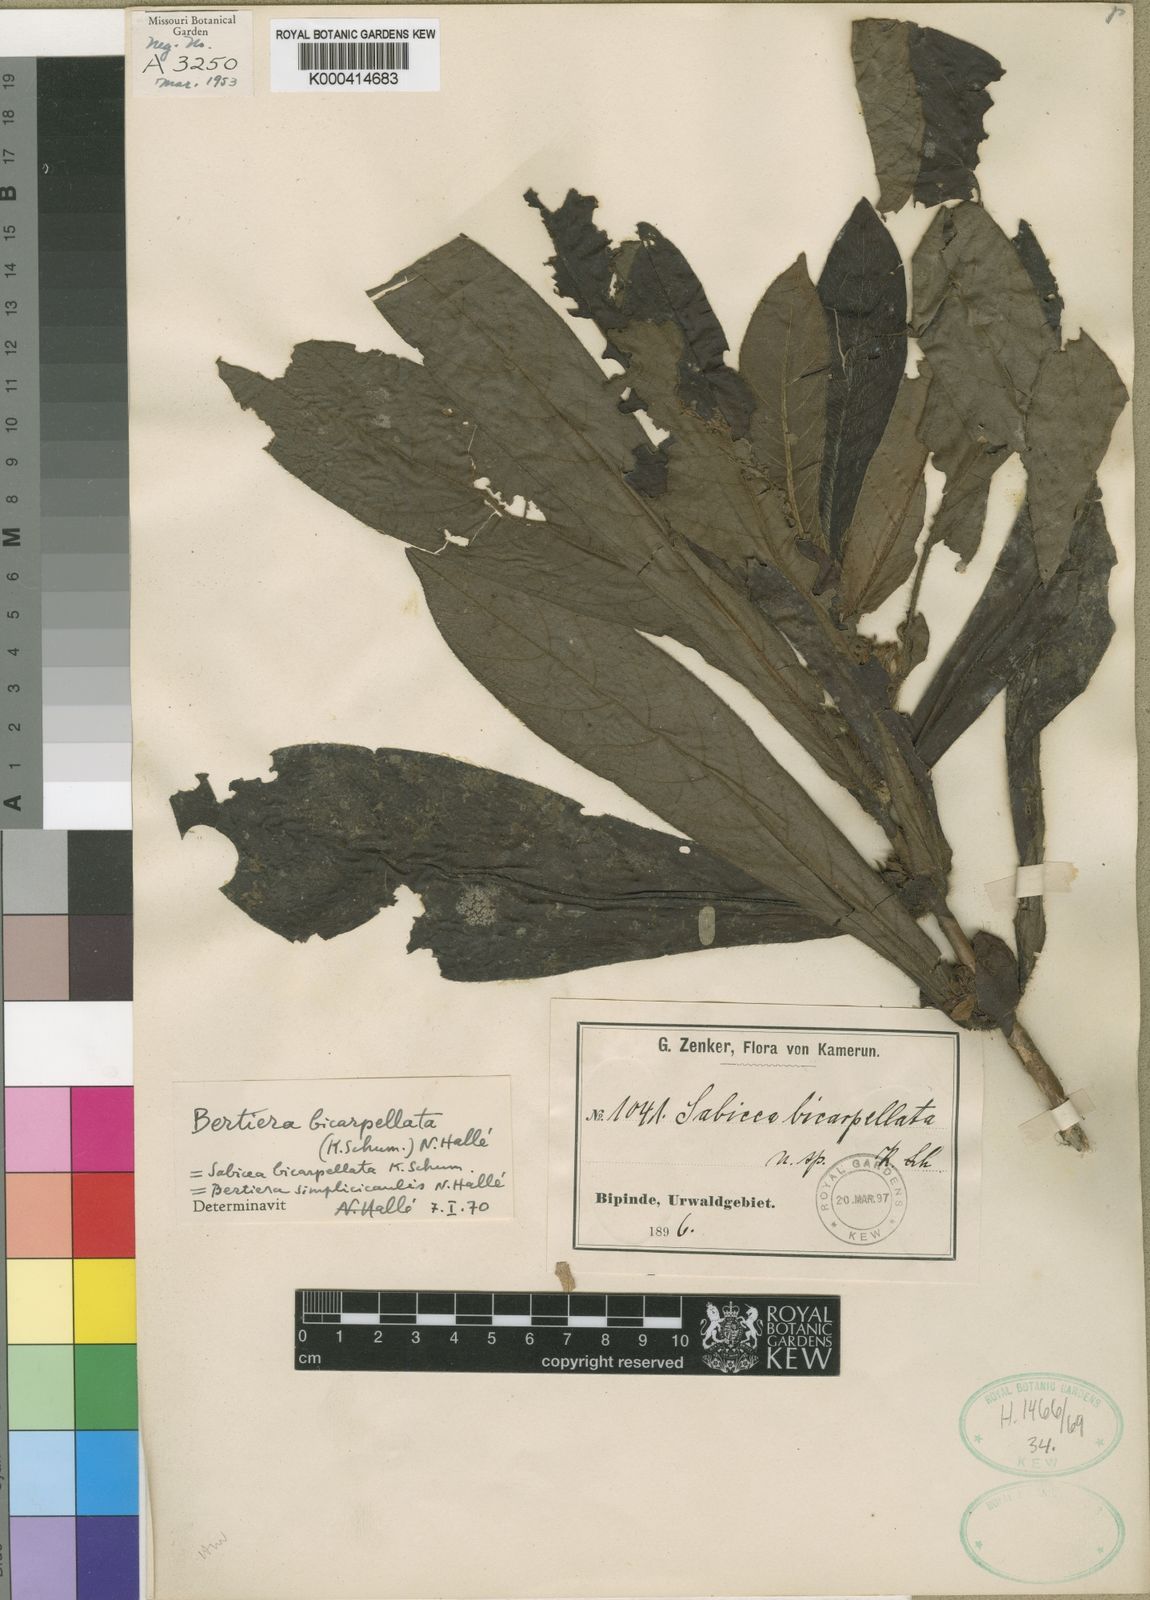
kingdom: Plantae
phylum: Tracheophyta
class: Magnoliopsida
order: Gentianales
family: Rubiaceae
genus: Bertiera
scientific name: Bertiera
